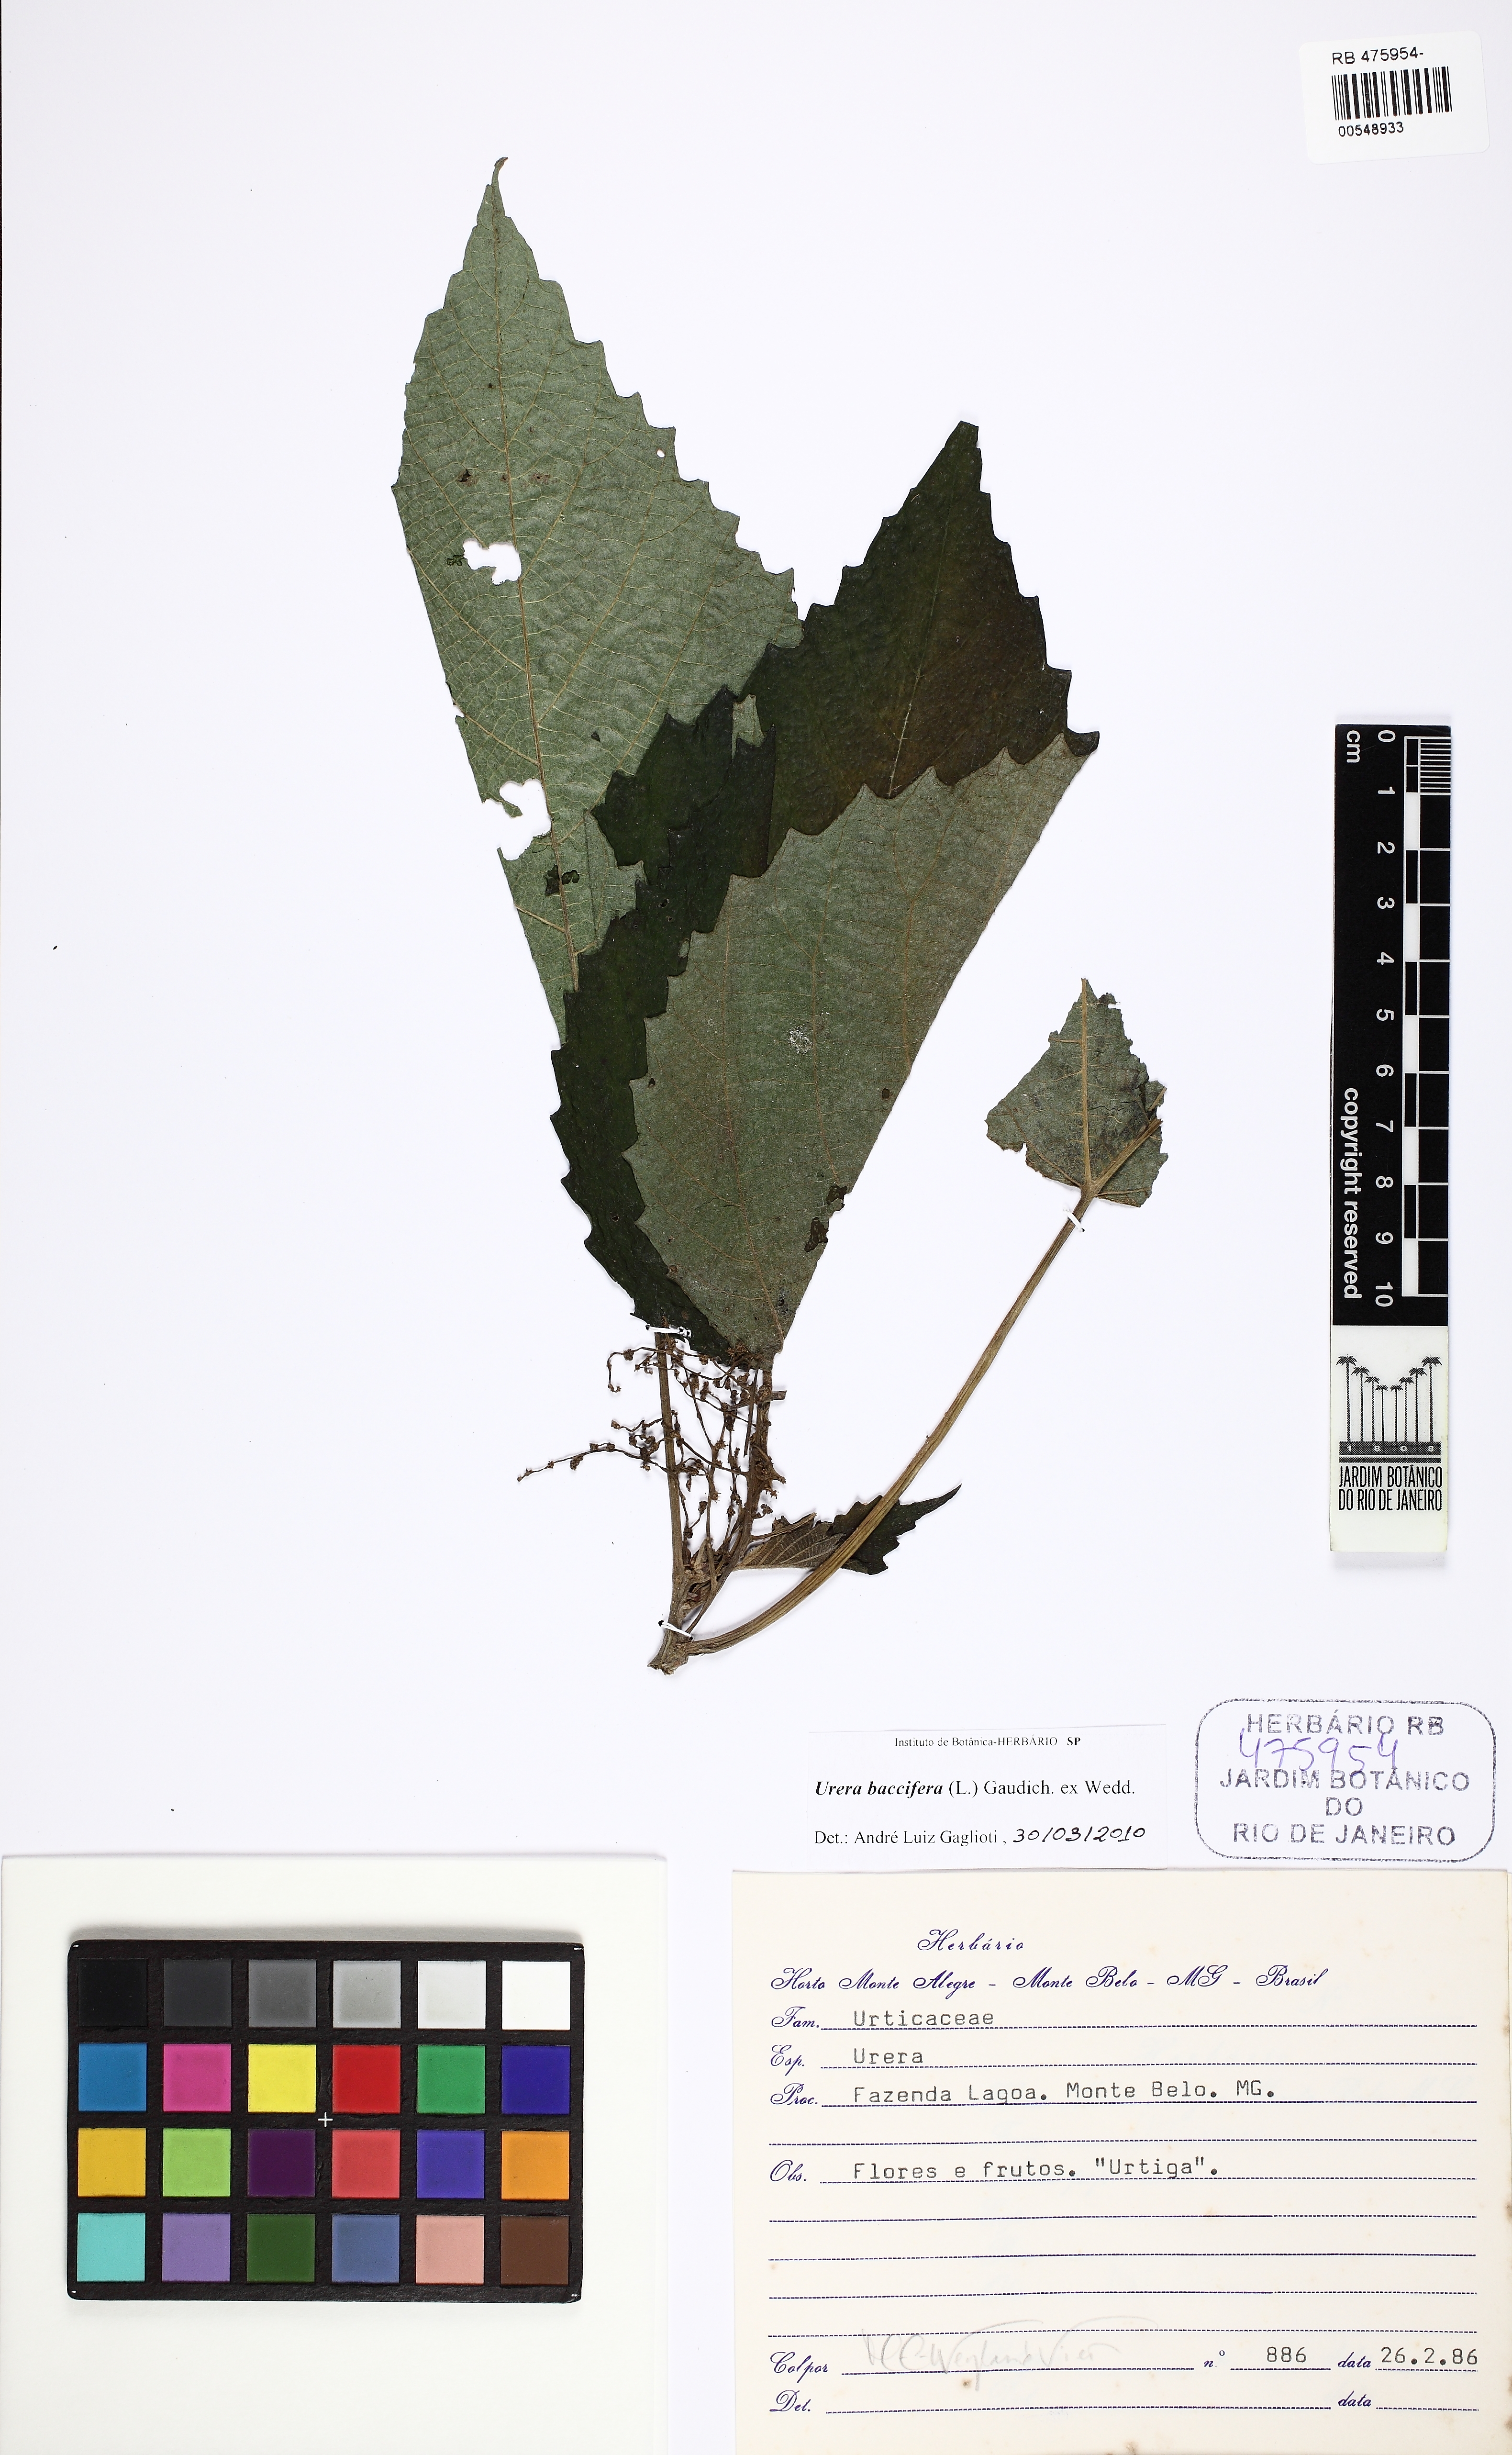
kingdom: Plantae
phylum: Tracheophyta
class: Magnoliopsida
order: Rosales
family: Urticaceae
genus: Urera
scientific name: Urera baccifera
